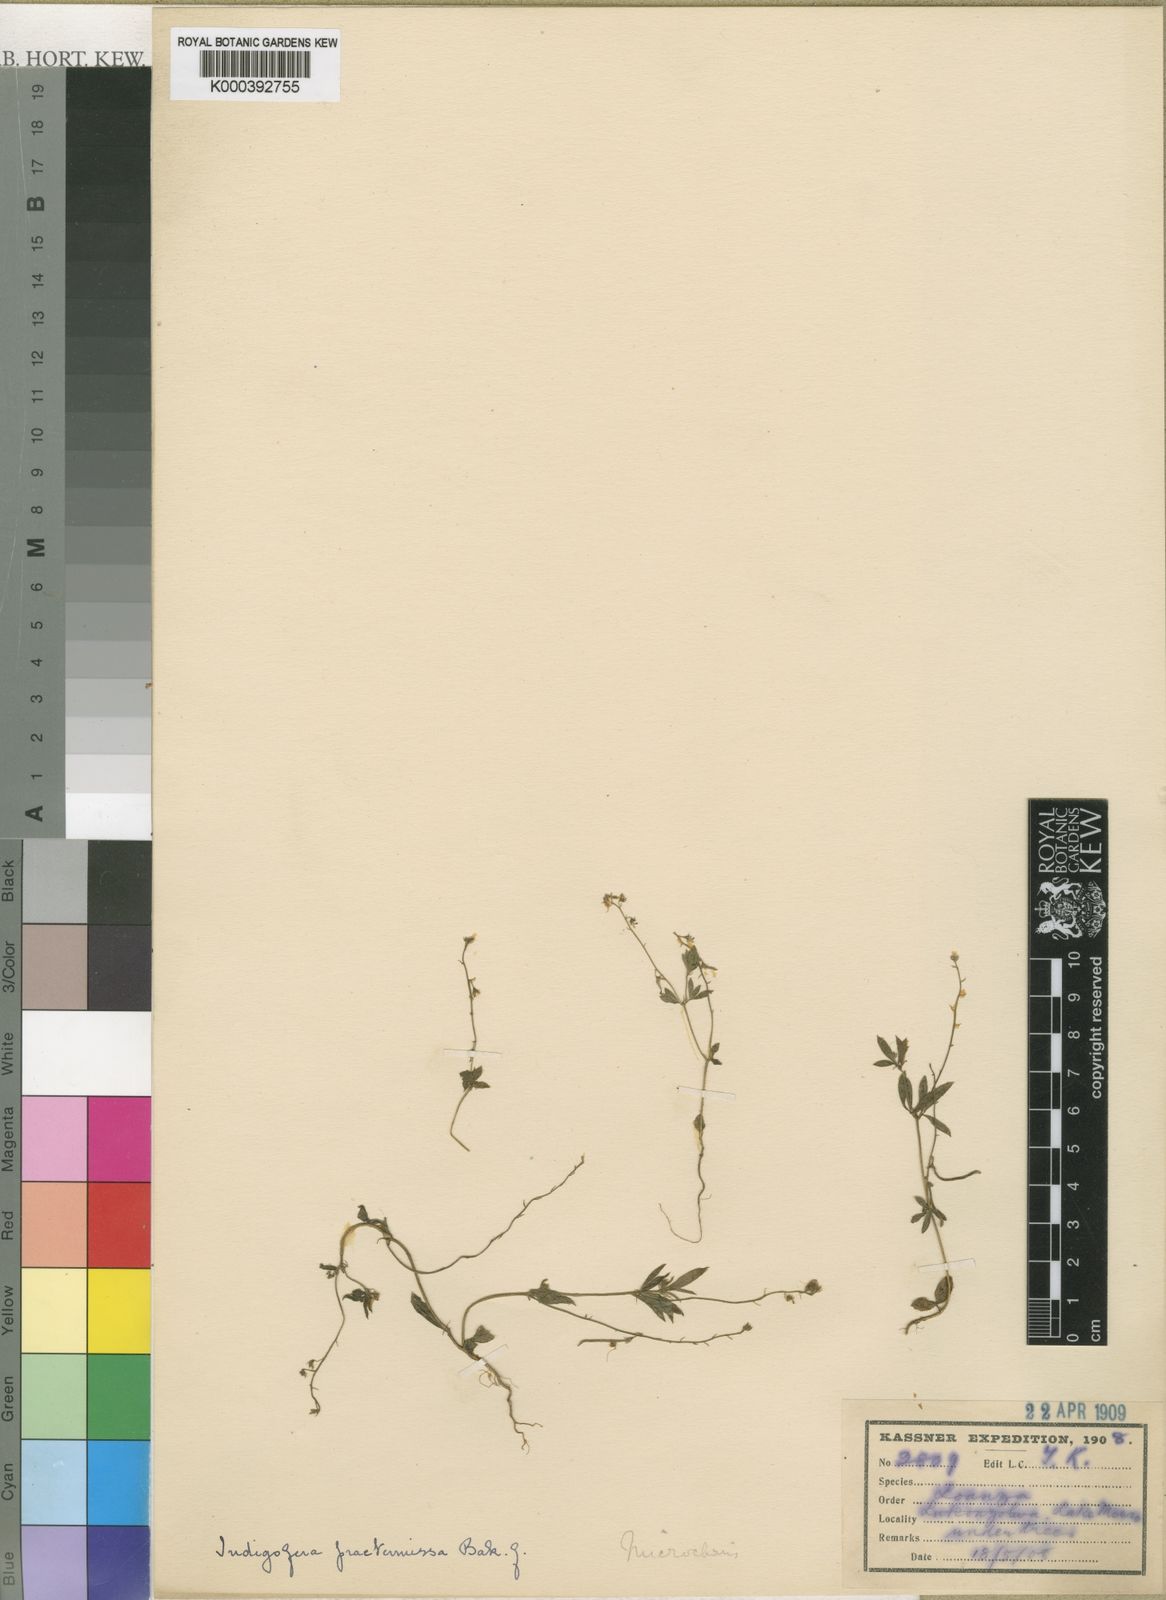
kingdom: Plantae
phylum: Tracheophyta
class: Magnoliopsida
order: Fabales
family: Fabaceae
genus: Indigofera
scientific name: Indigofera
